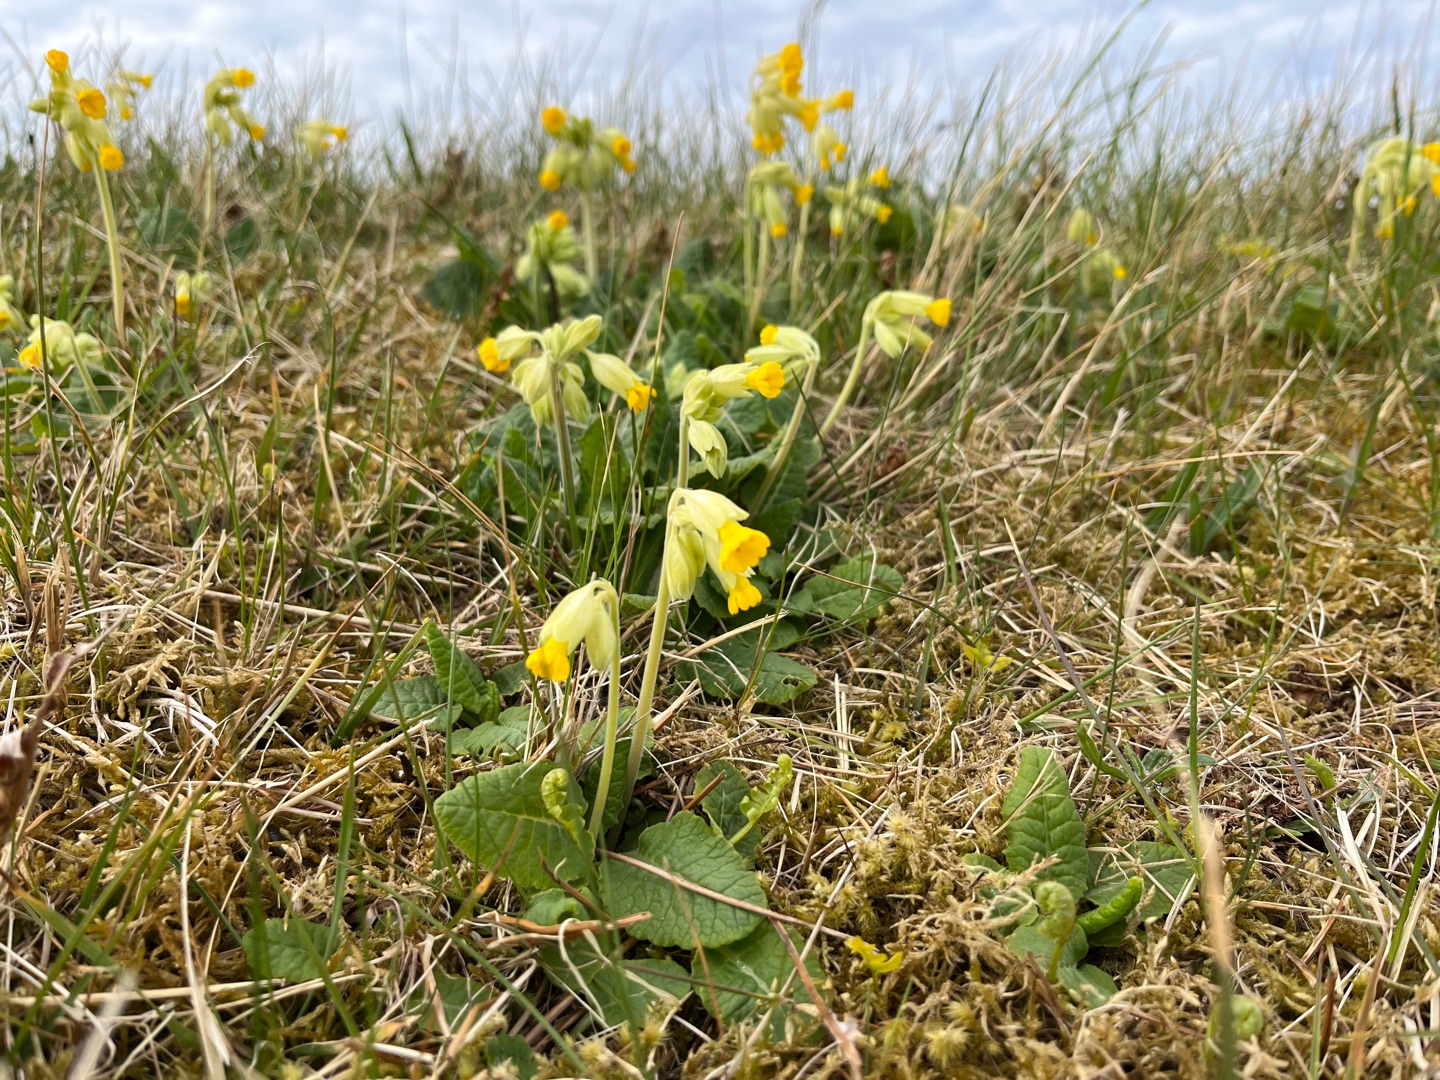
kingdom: Plantae
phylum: Tracheophyta
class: Magnoliopsida
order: Ericales
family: Primulaceae
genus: Primula
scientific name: Primula veris
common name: Hulkravet kodriver
